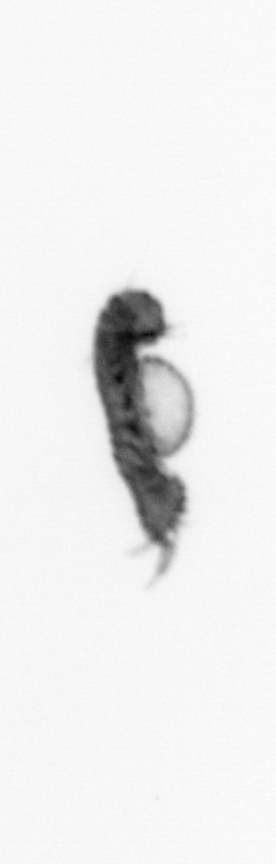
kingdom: Animalia
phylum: Annelida
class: Polychaeta
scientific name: Polychaeta
